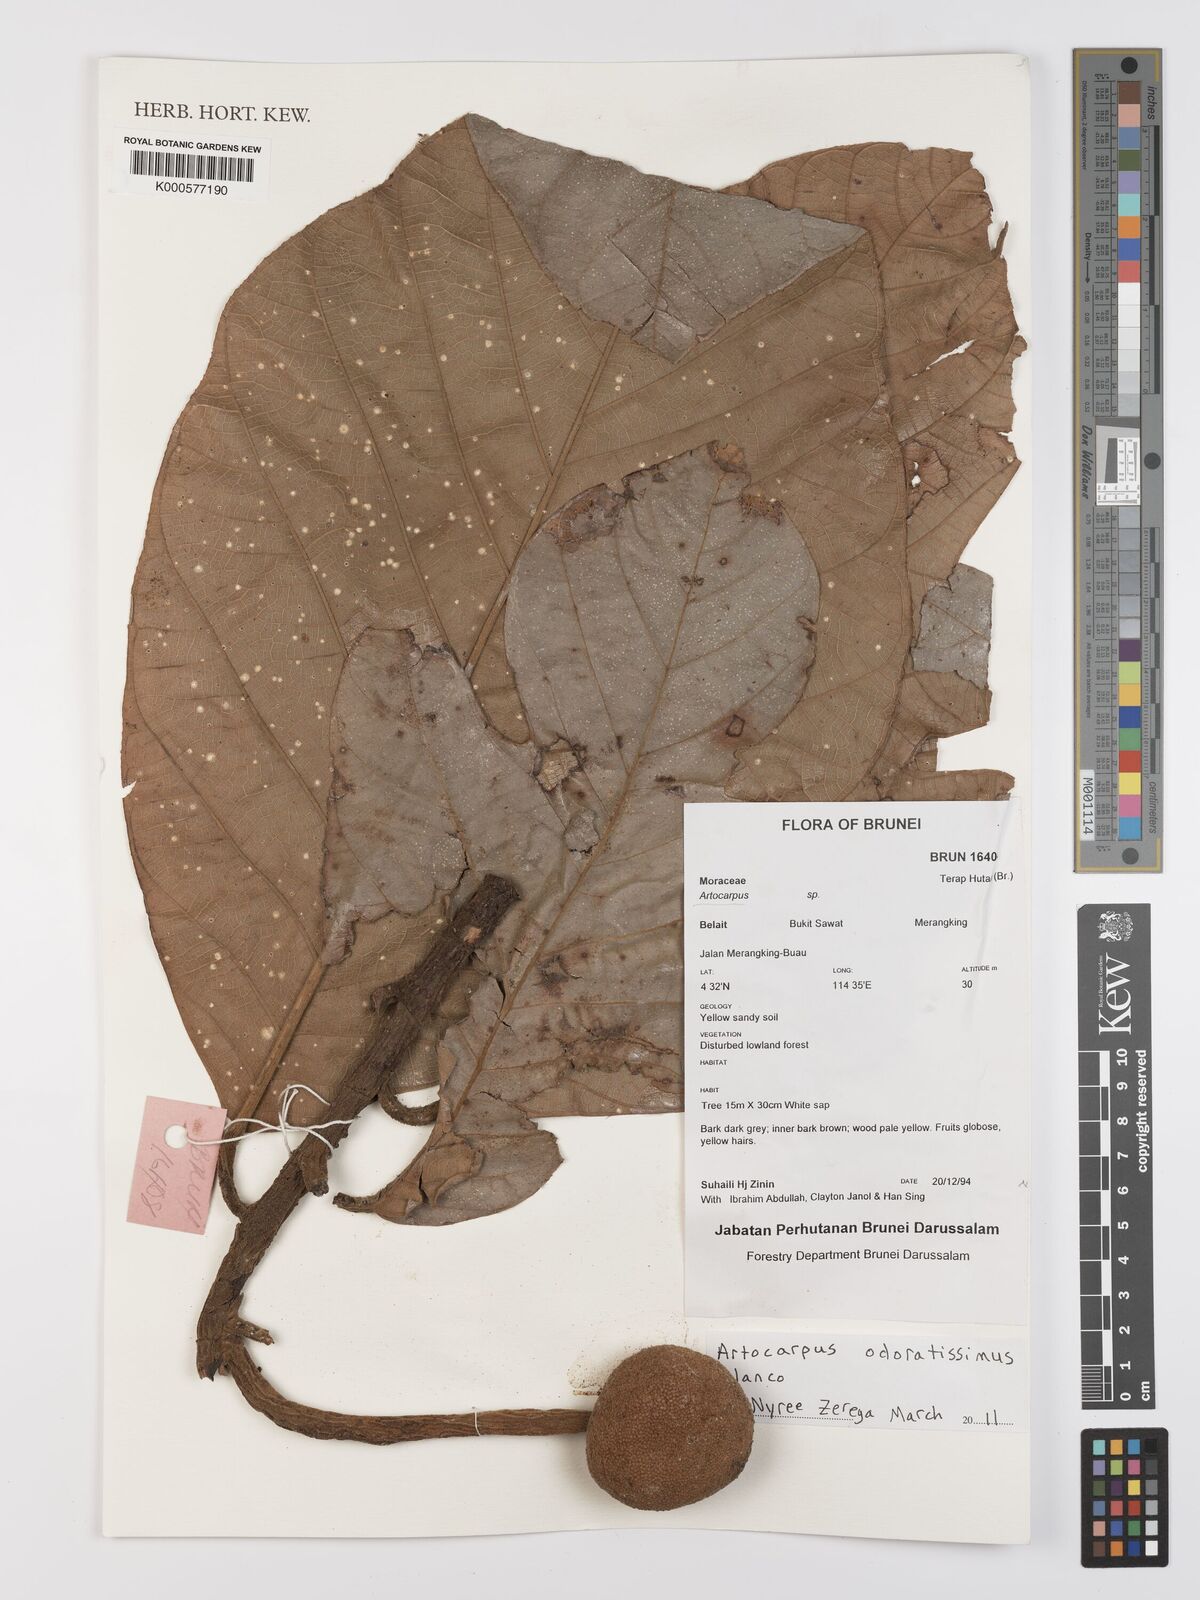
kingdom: Plantae
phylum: Tracheophyta
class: Magnoliopsida
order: Rosales
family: Moraceae
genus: Artocarpus
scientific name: Artocarpus odoratissimus
